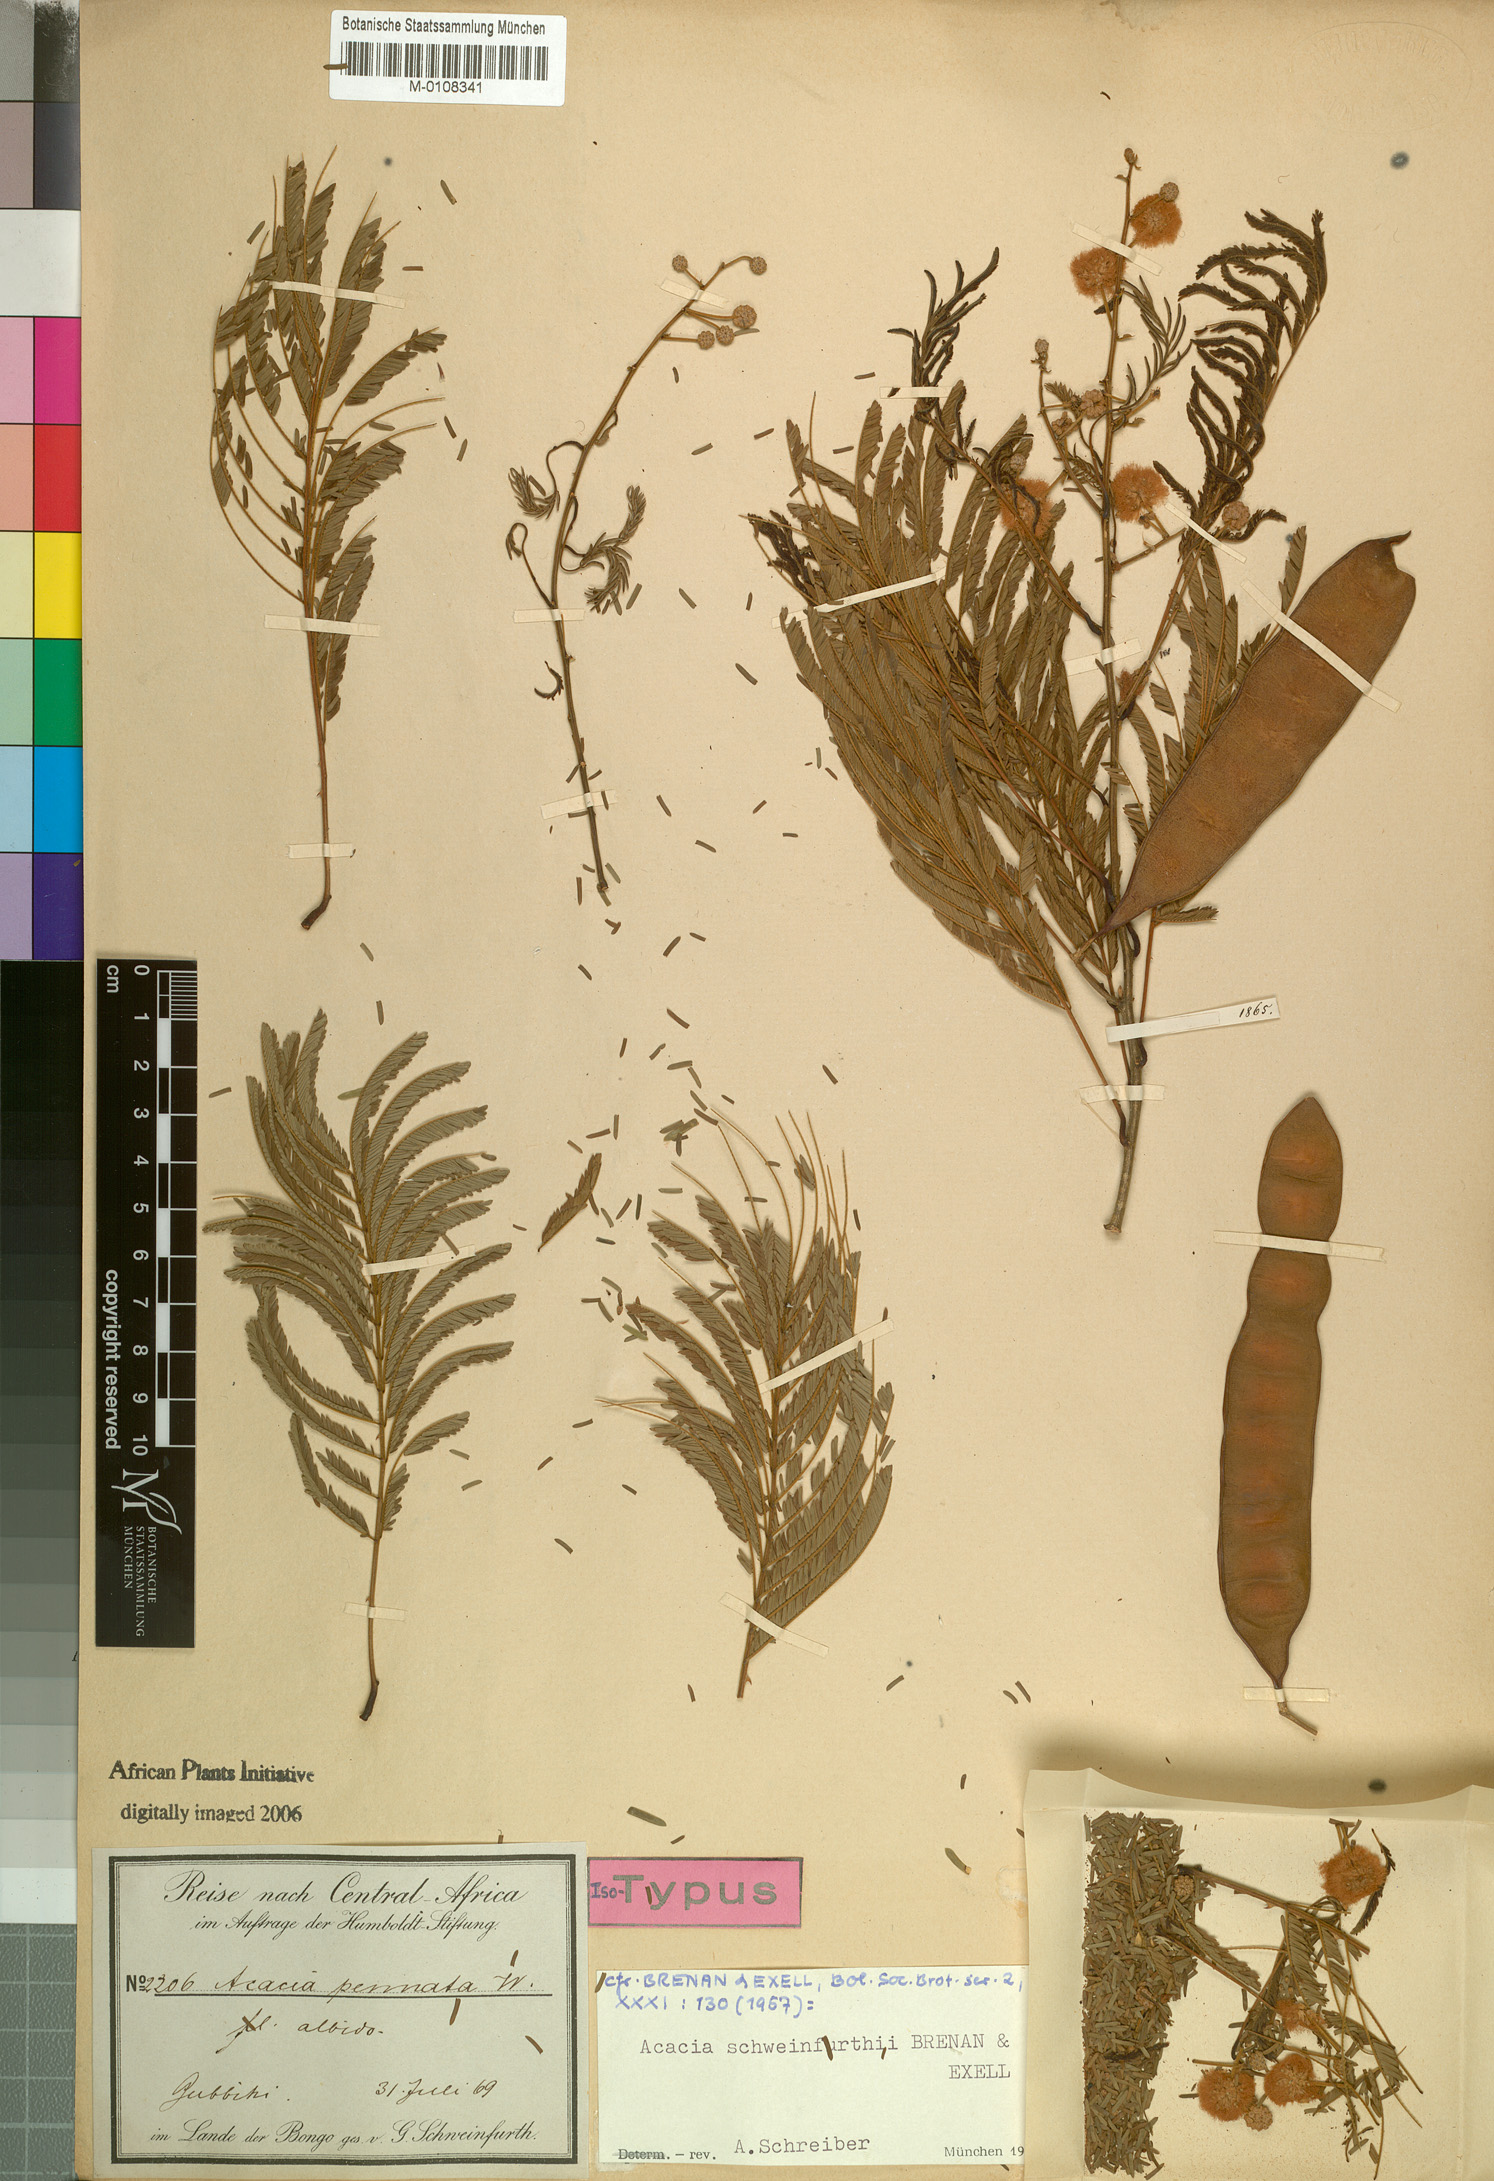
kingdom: Plantae
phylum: Tracheophyta
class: Magnoliopsida
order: Fabales
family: Fabaceae
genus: Senegalia
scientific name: Senegalia schweinfurthii
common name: River climbing acacia
